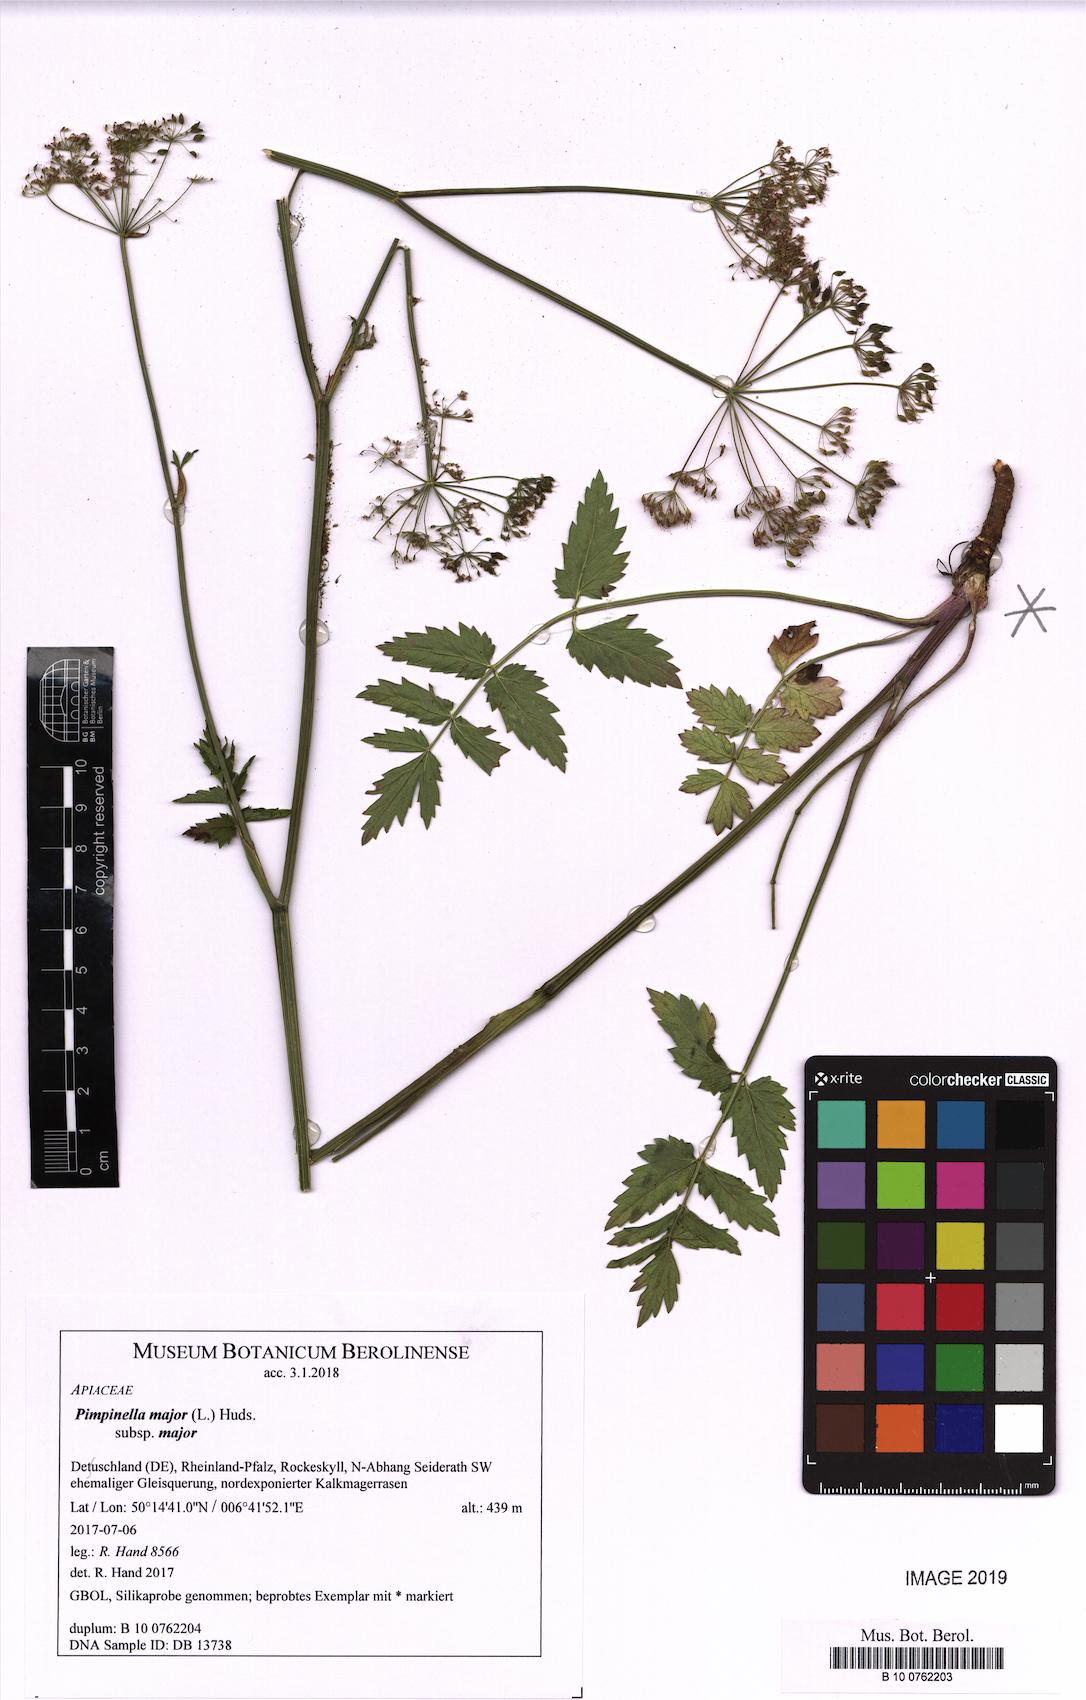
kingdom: Plantae
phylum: Tracheophyta
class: Magnoliopsida
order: Apiales
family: Apiaceae
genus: Pimpinella
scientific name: Pimpinella major
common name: Greater burnet-saxifrage
